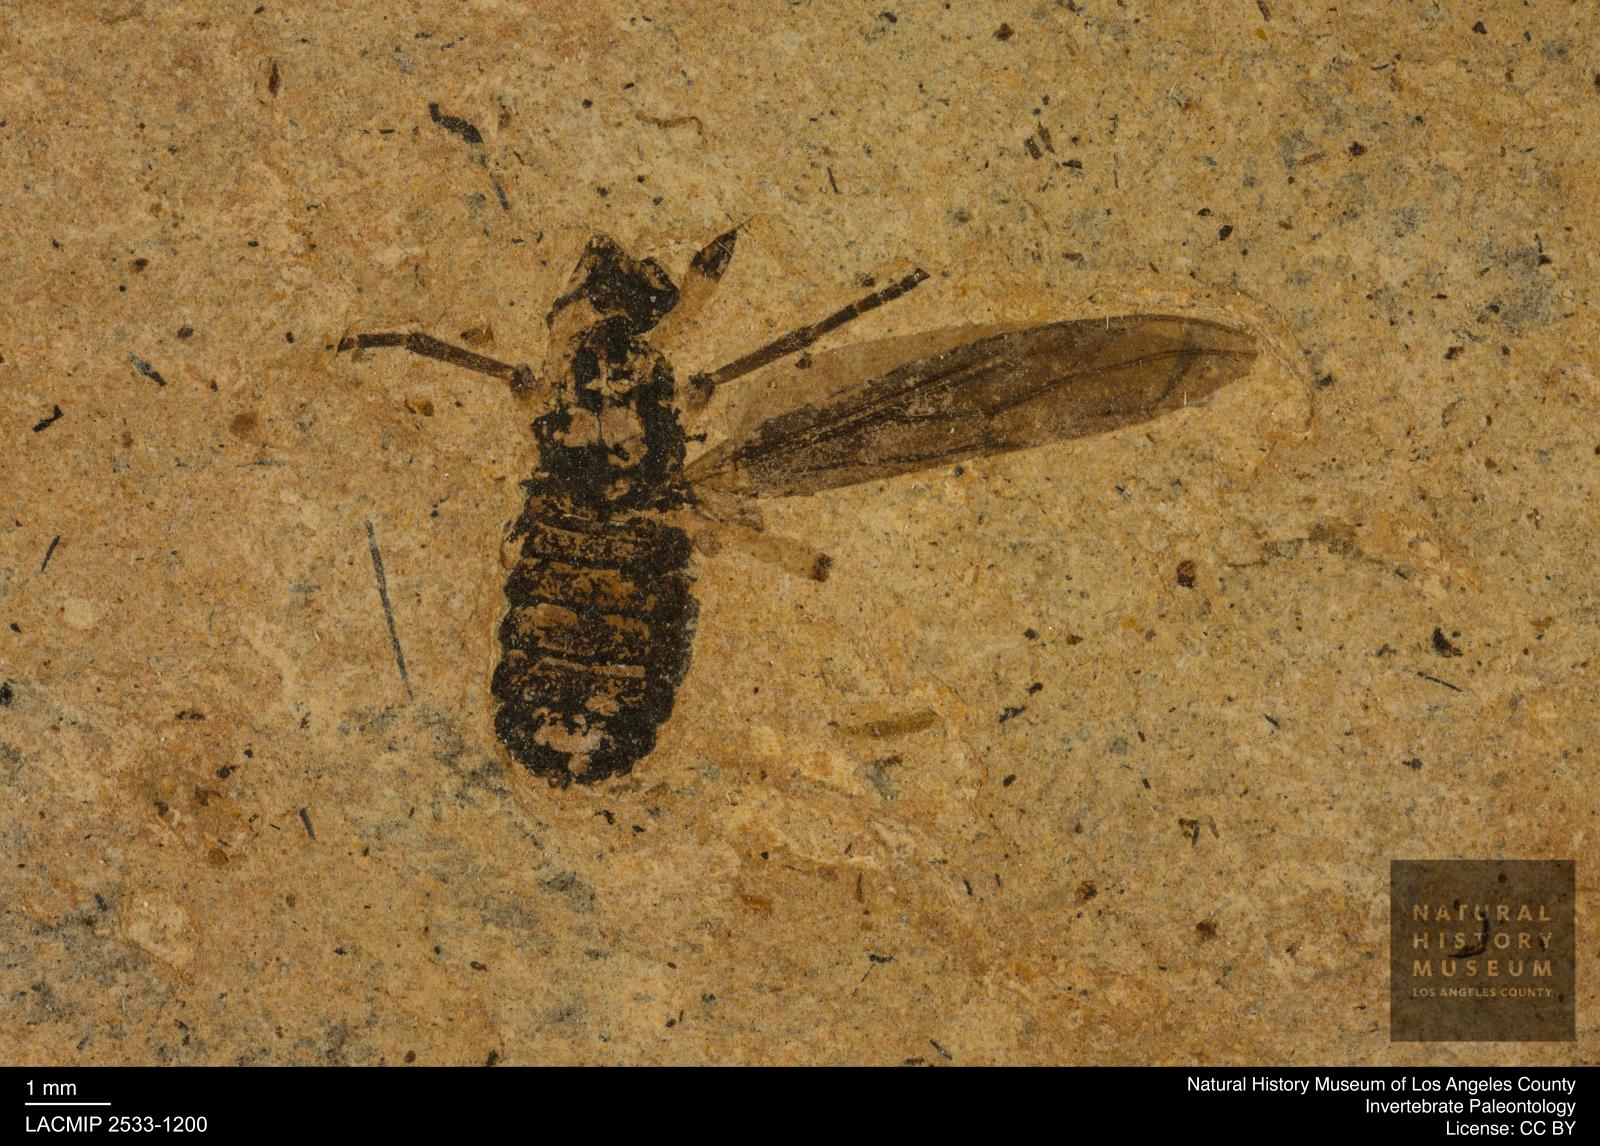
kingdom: Animalia
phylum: Arthropoda
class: Insecta
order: Diptera
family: Bibionidae
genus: Plecia
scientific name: Plecia stygia
